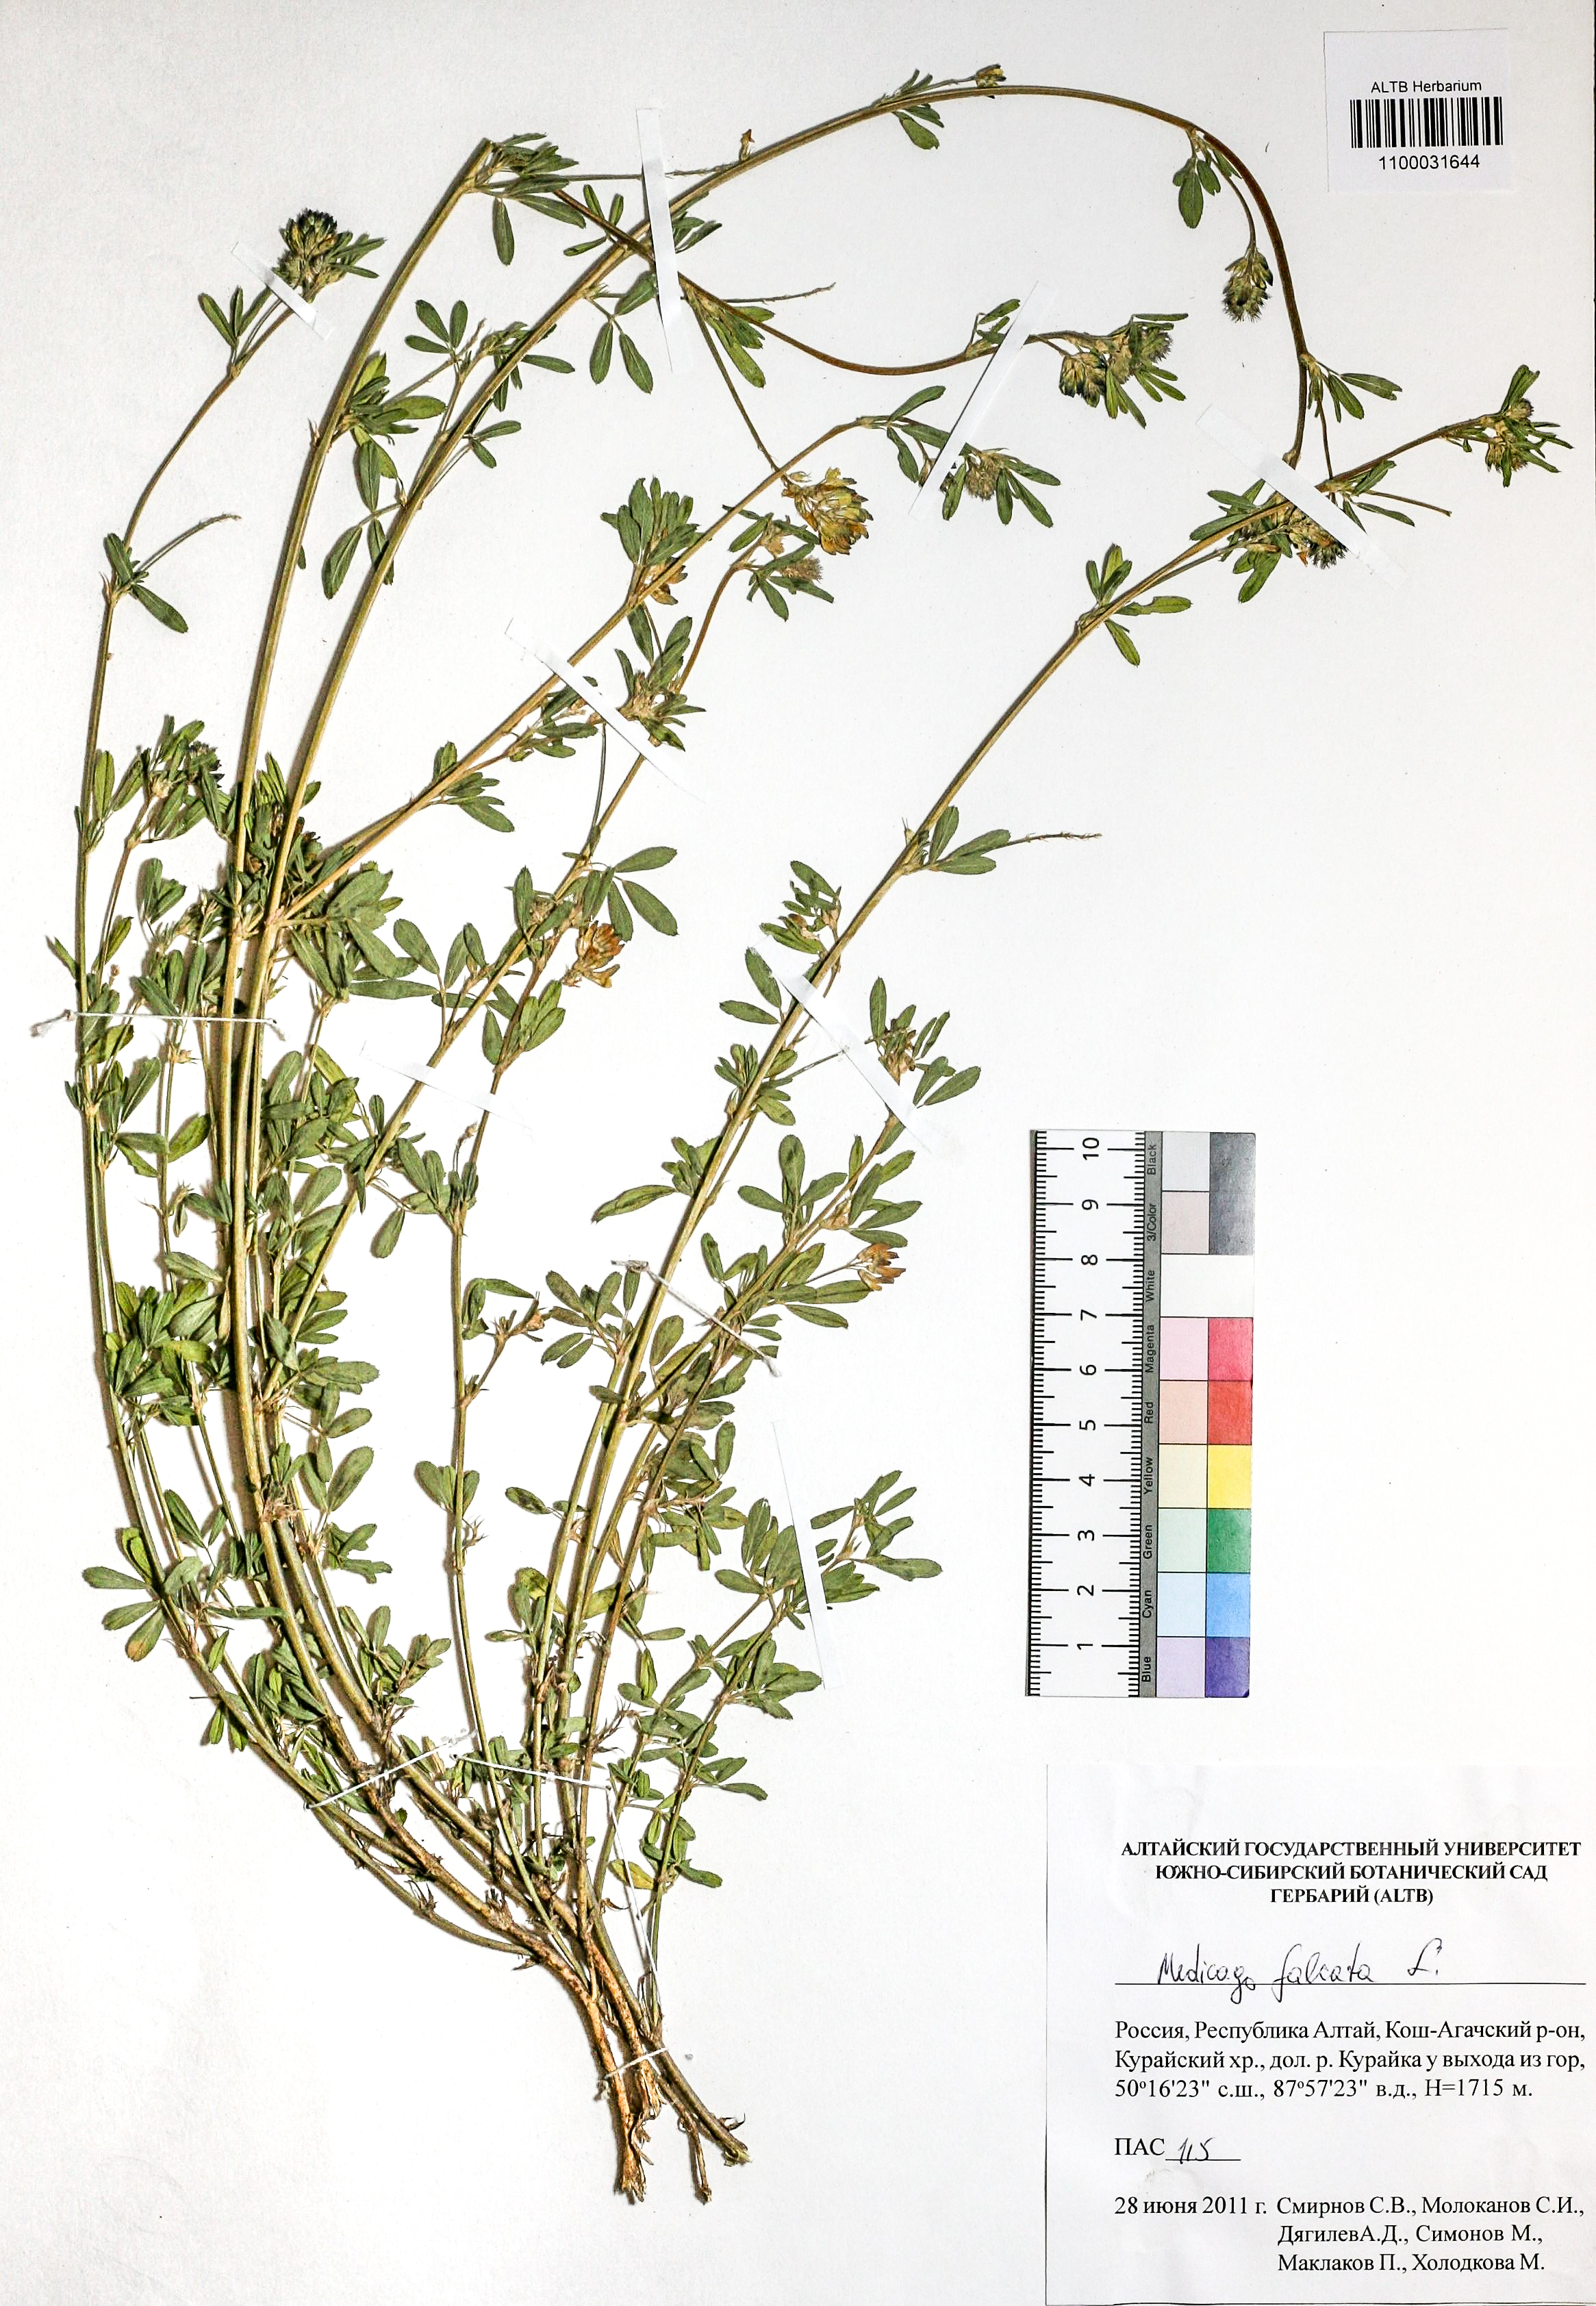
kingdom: Plantae
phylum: Tracheophyta
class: Magnoliopsida
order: Fabales
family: Fabaceae
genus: Medicago
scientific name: Medicago falcata
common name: Sickle medick
